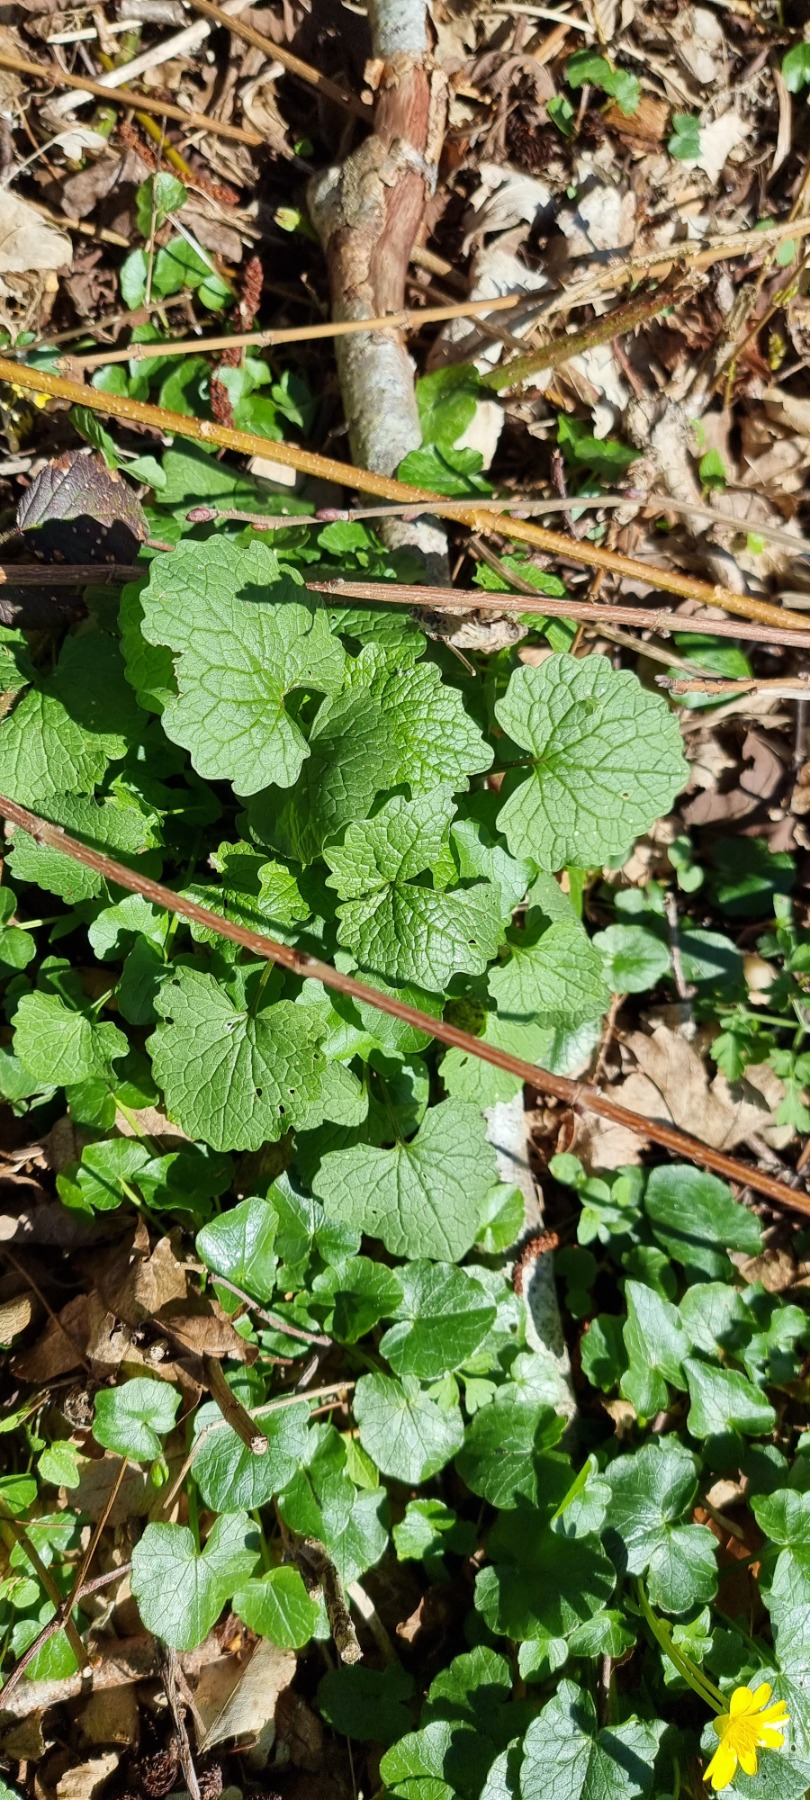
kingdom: Plantae
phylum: Tracheophyta
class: Magnoliopsida
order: Brassicales
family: Brassicaceae
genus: Alliaria
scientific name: Alliaria petiolata
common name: Løgkarse
